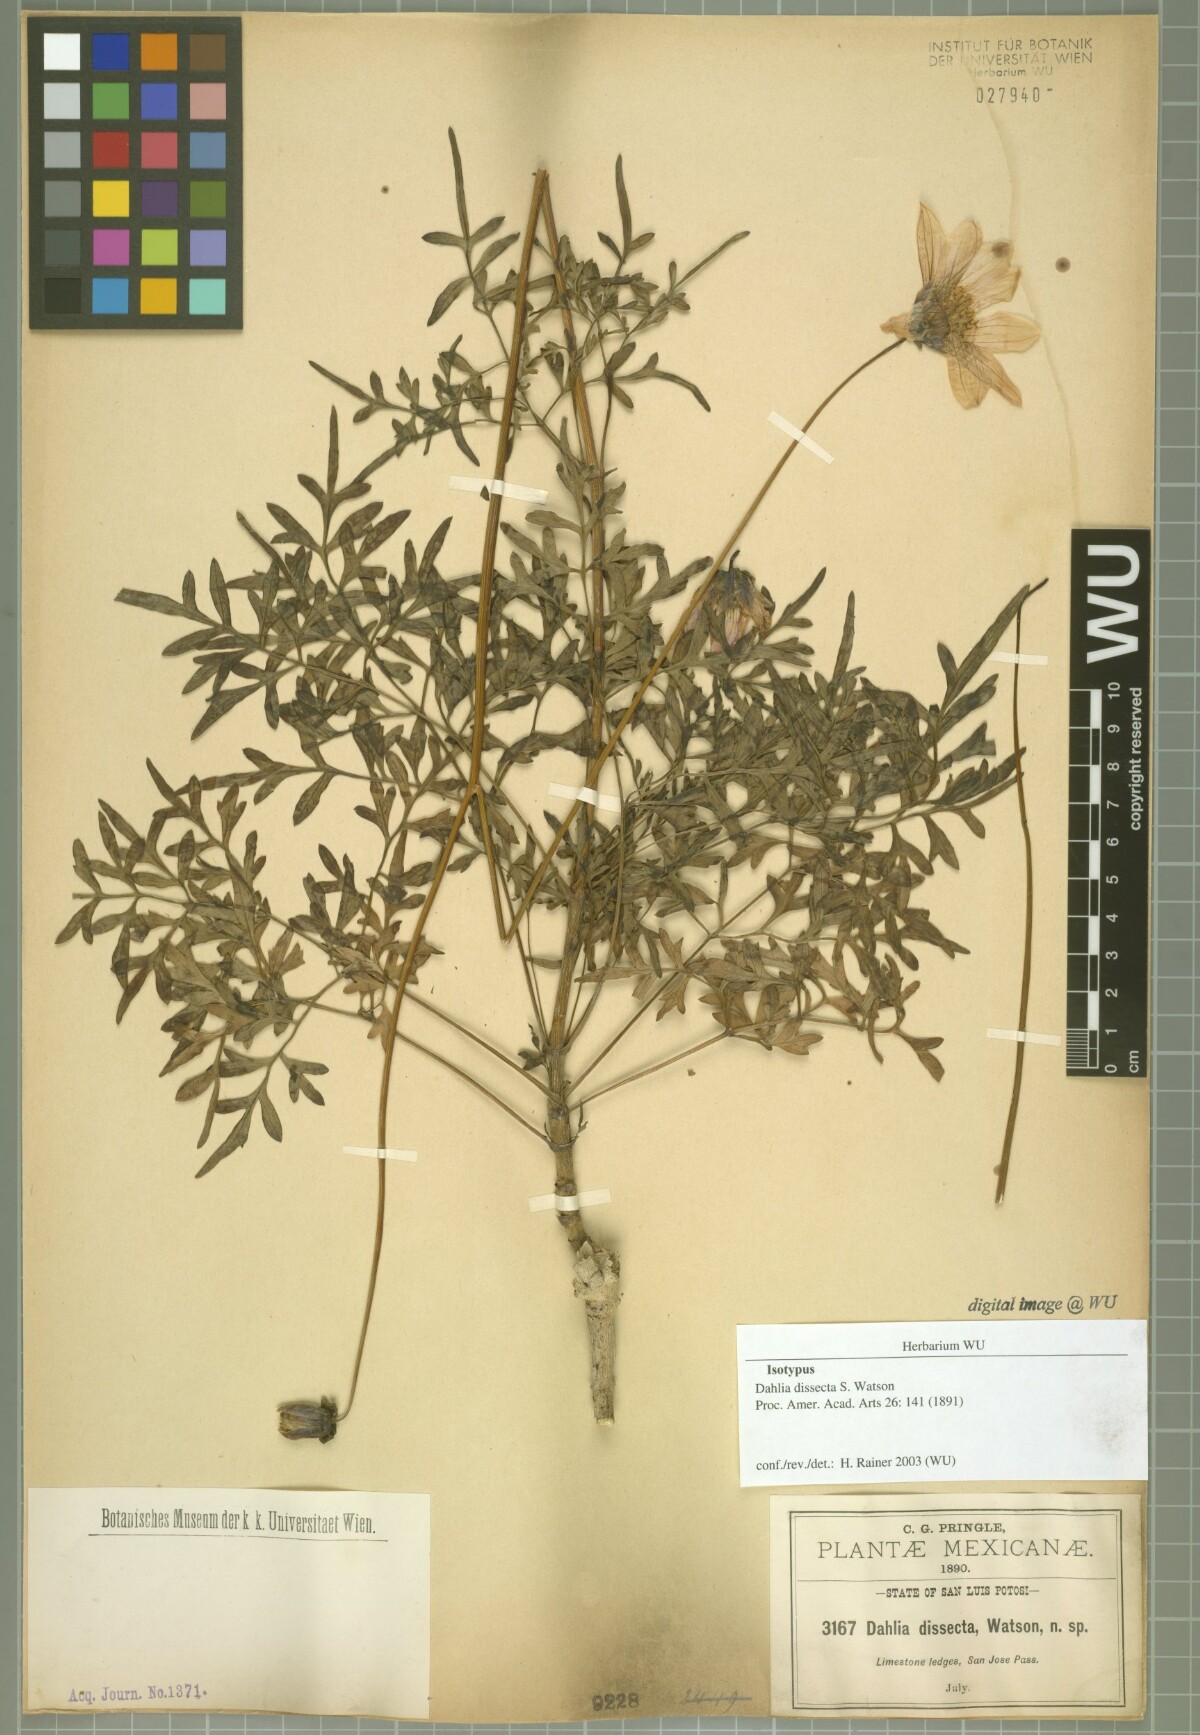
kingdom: Plantae
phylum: Tracheophyta
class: Magnoliopsida
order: Asterales
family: Asteraceae
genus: Dahlia
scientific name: Dahlia dissecta
